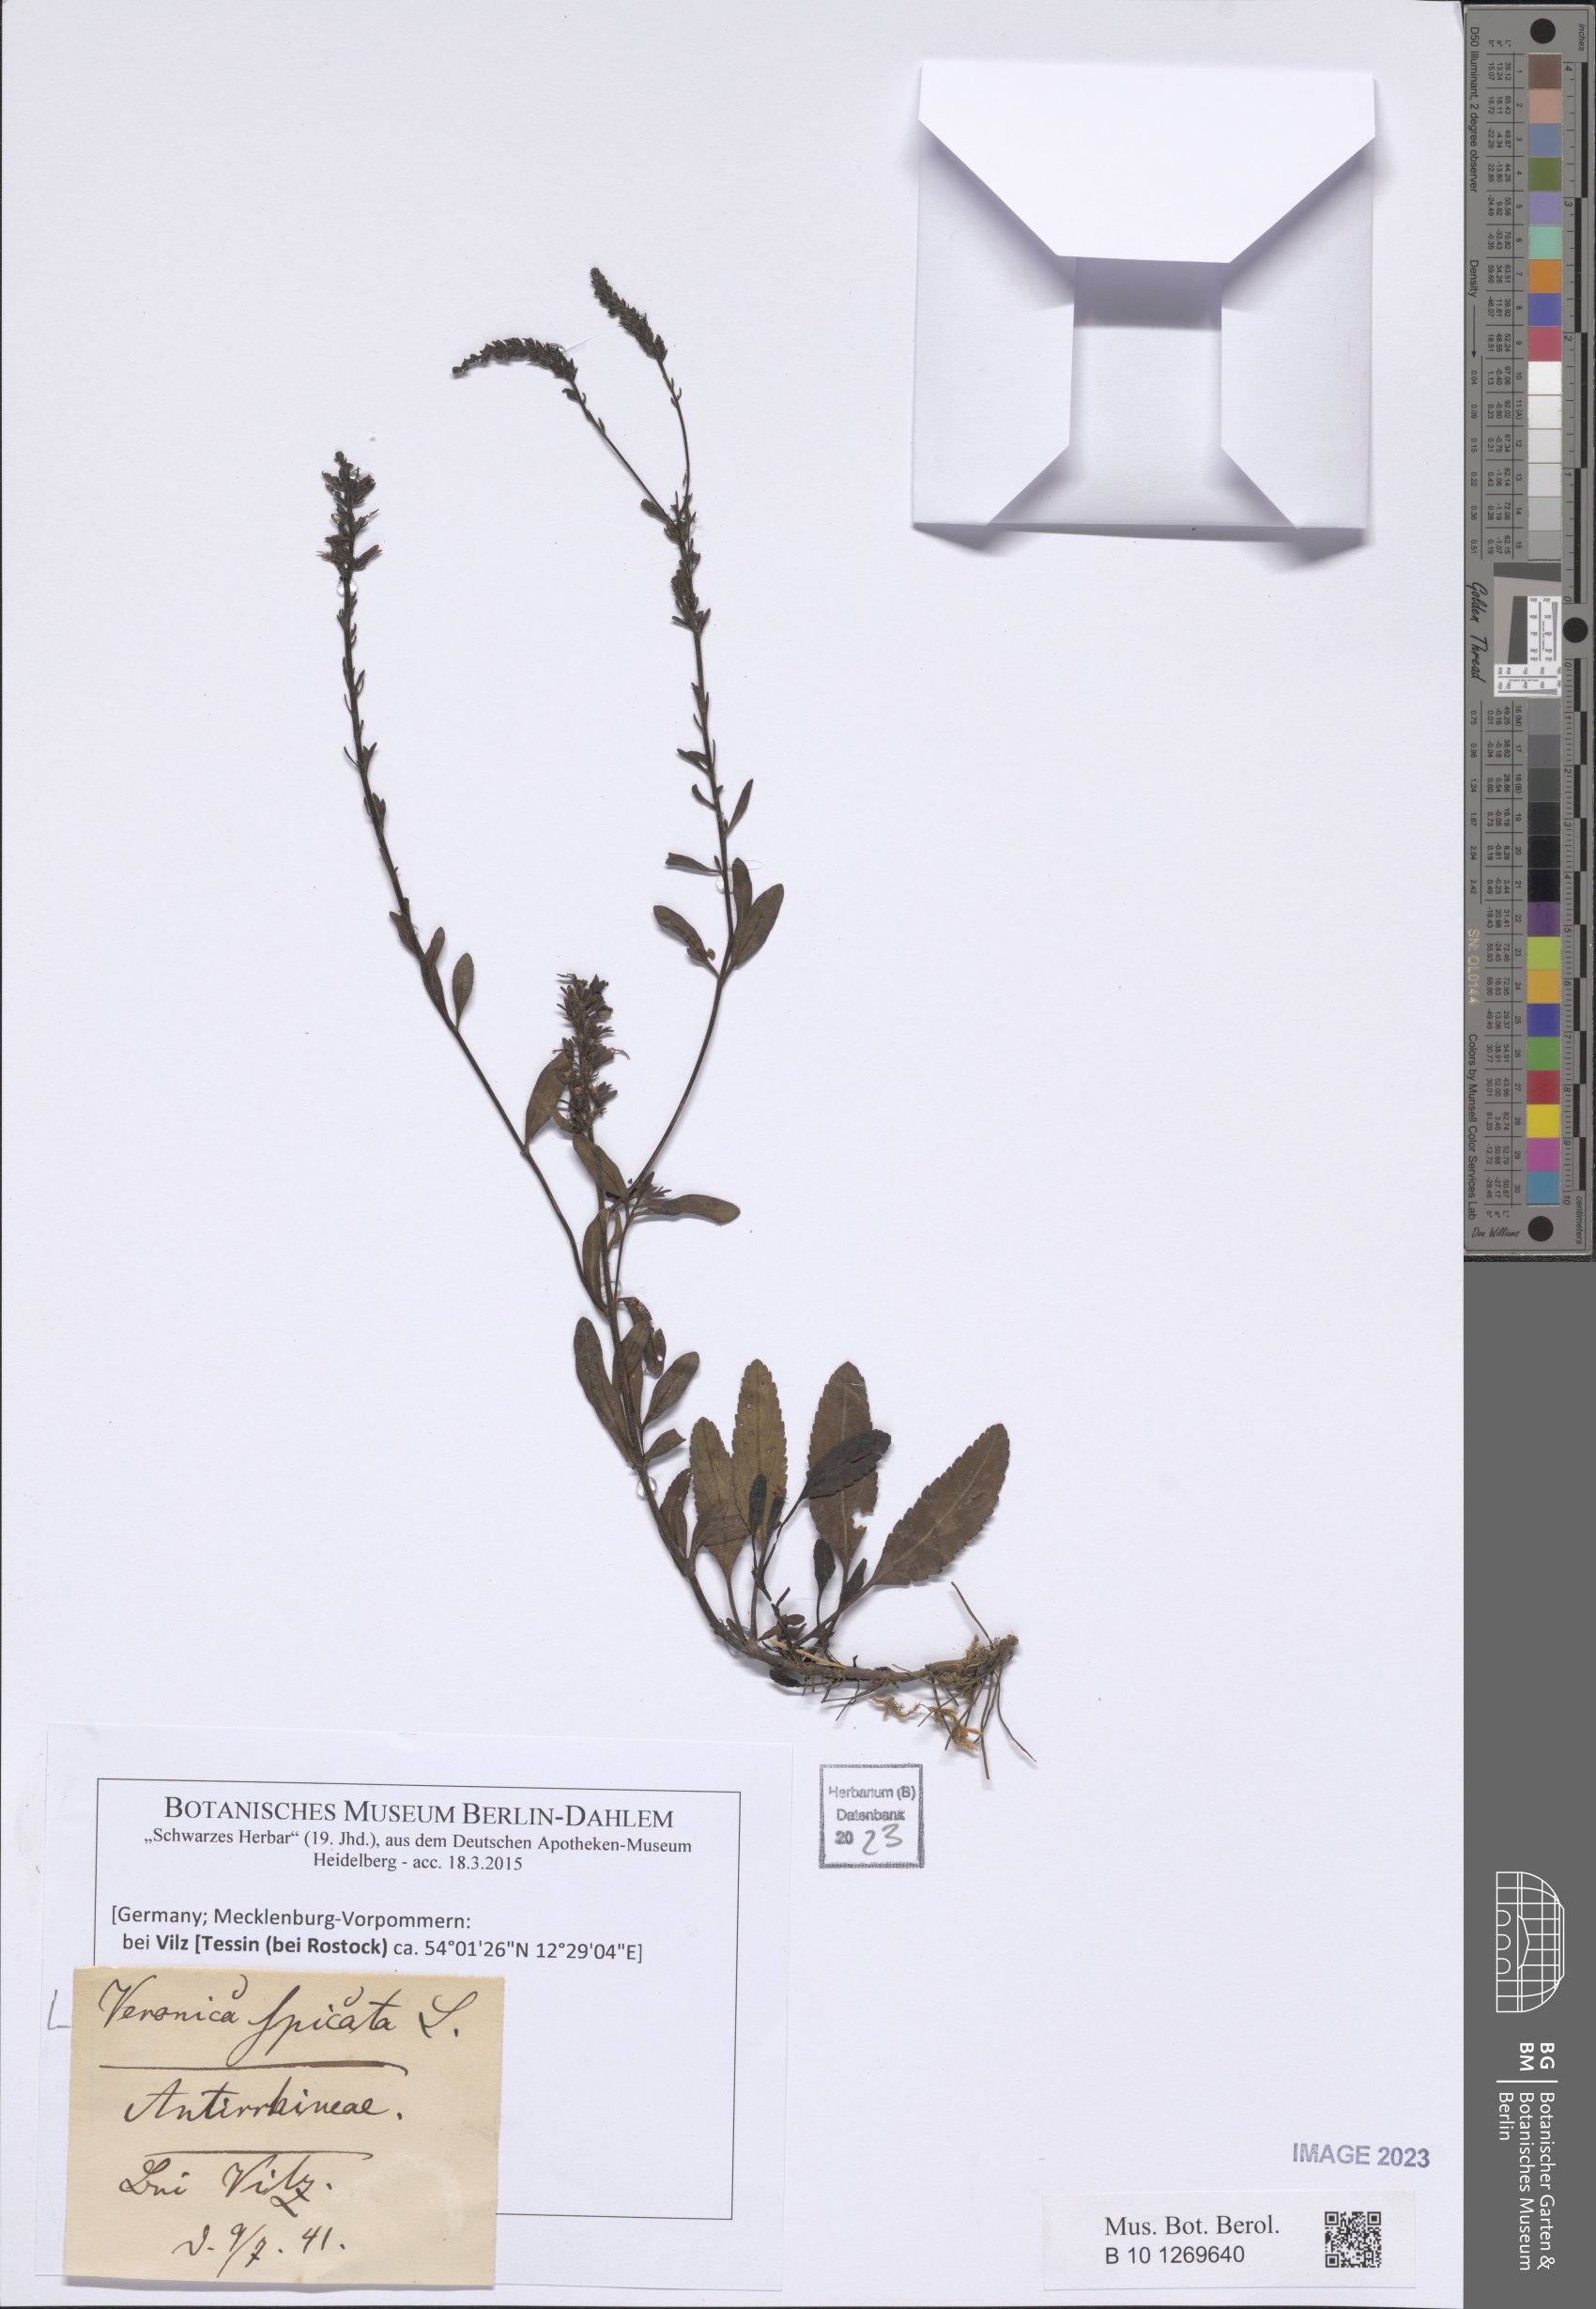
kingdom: Plantae
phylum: Tracheophyta
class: Magnoliopsida
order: Lamiales
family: Plantaginaceae
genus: Veronica
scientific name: Veronica spicata
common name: Spiked speedwell
